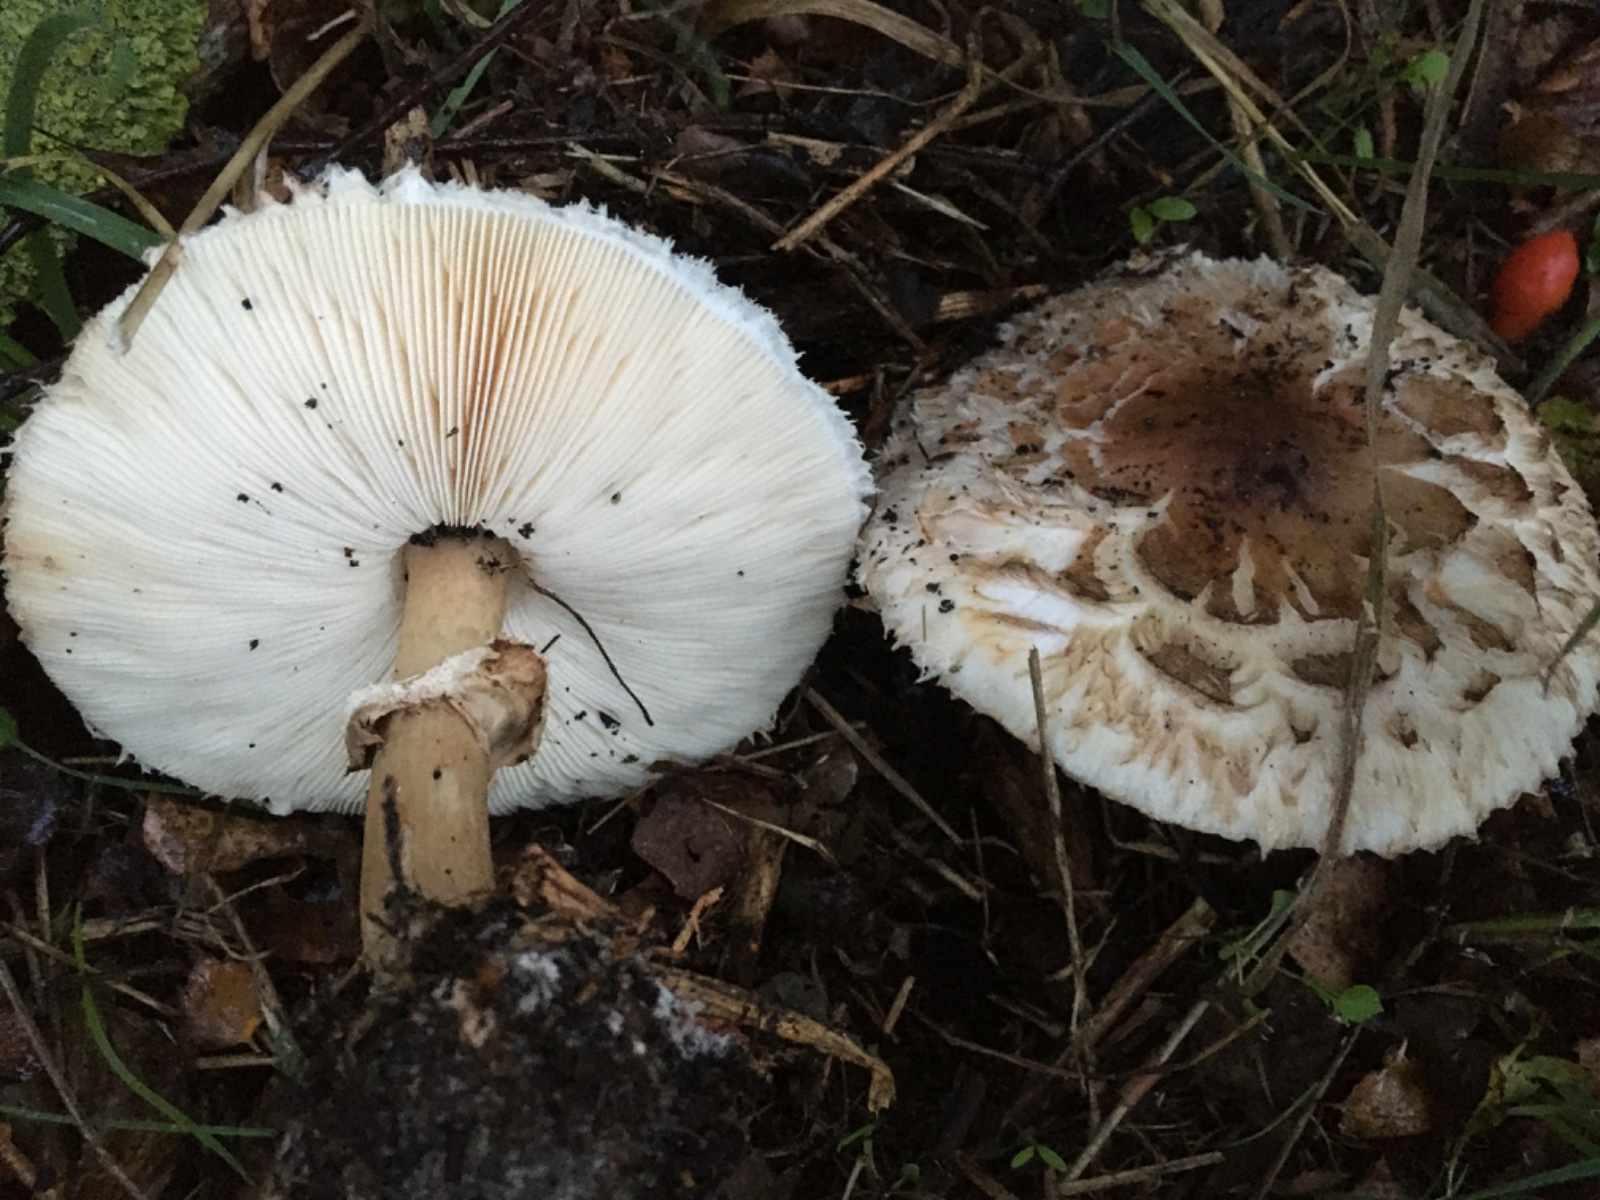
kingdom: Fungi
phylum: Basidiomycota
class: Agaricomycetes
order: Agaricales
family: Agaricaceae
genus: Chlorophyllum
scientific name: Chlorophyllum brunneum
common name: giftig rabarberhat
